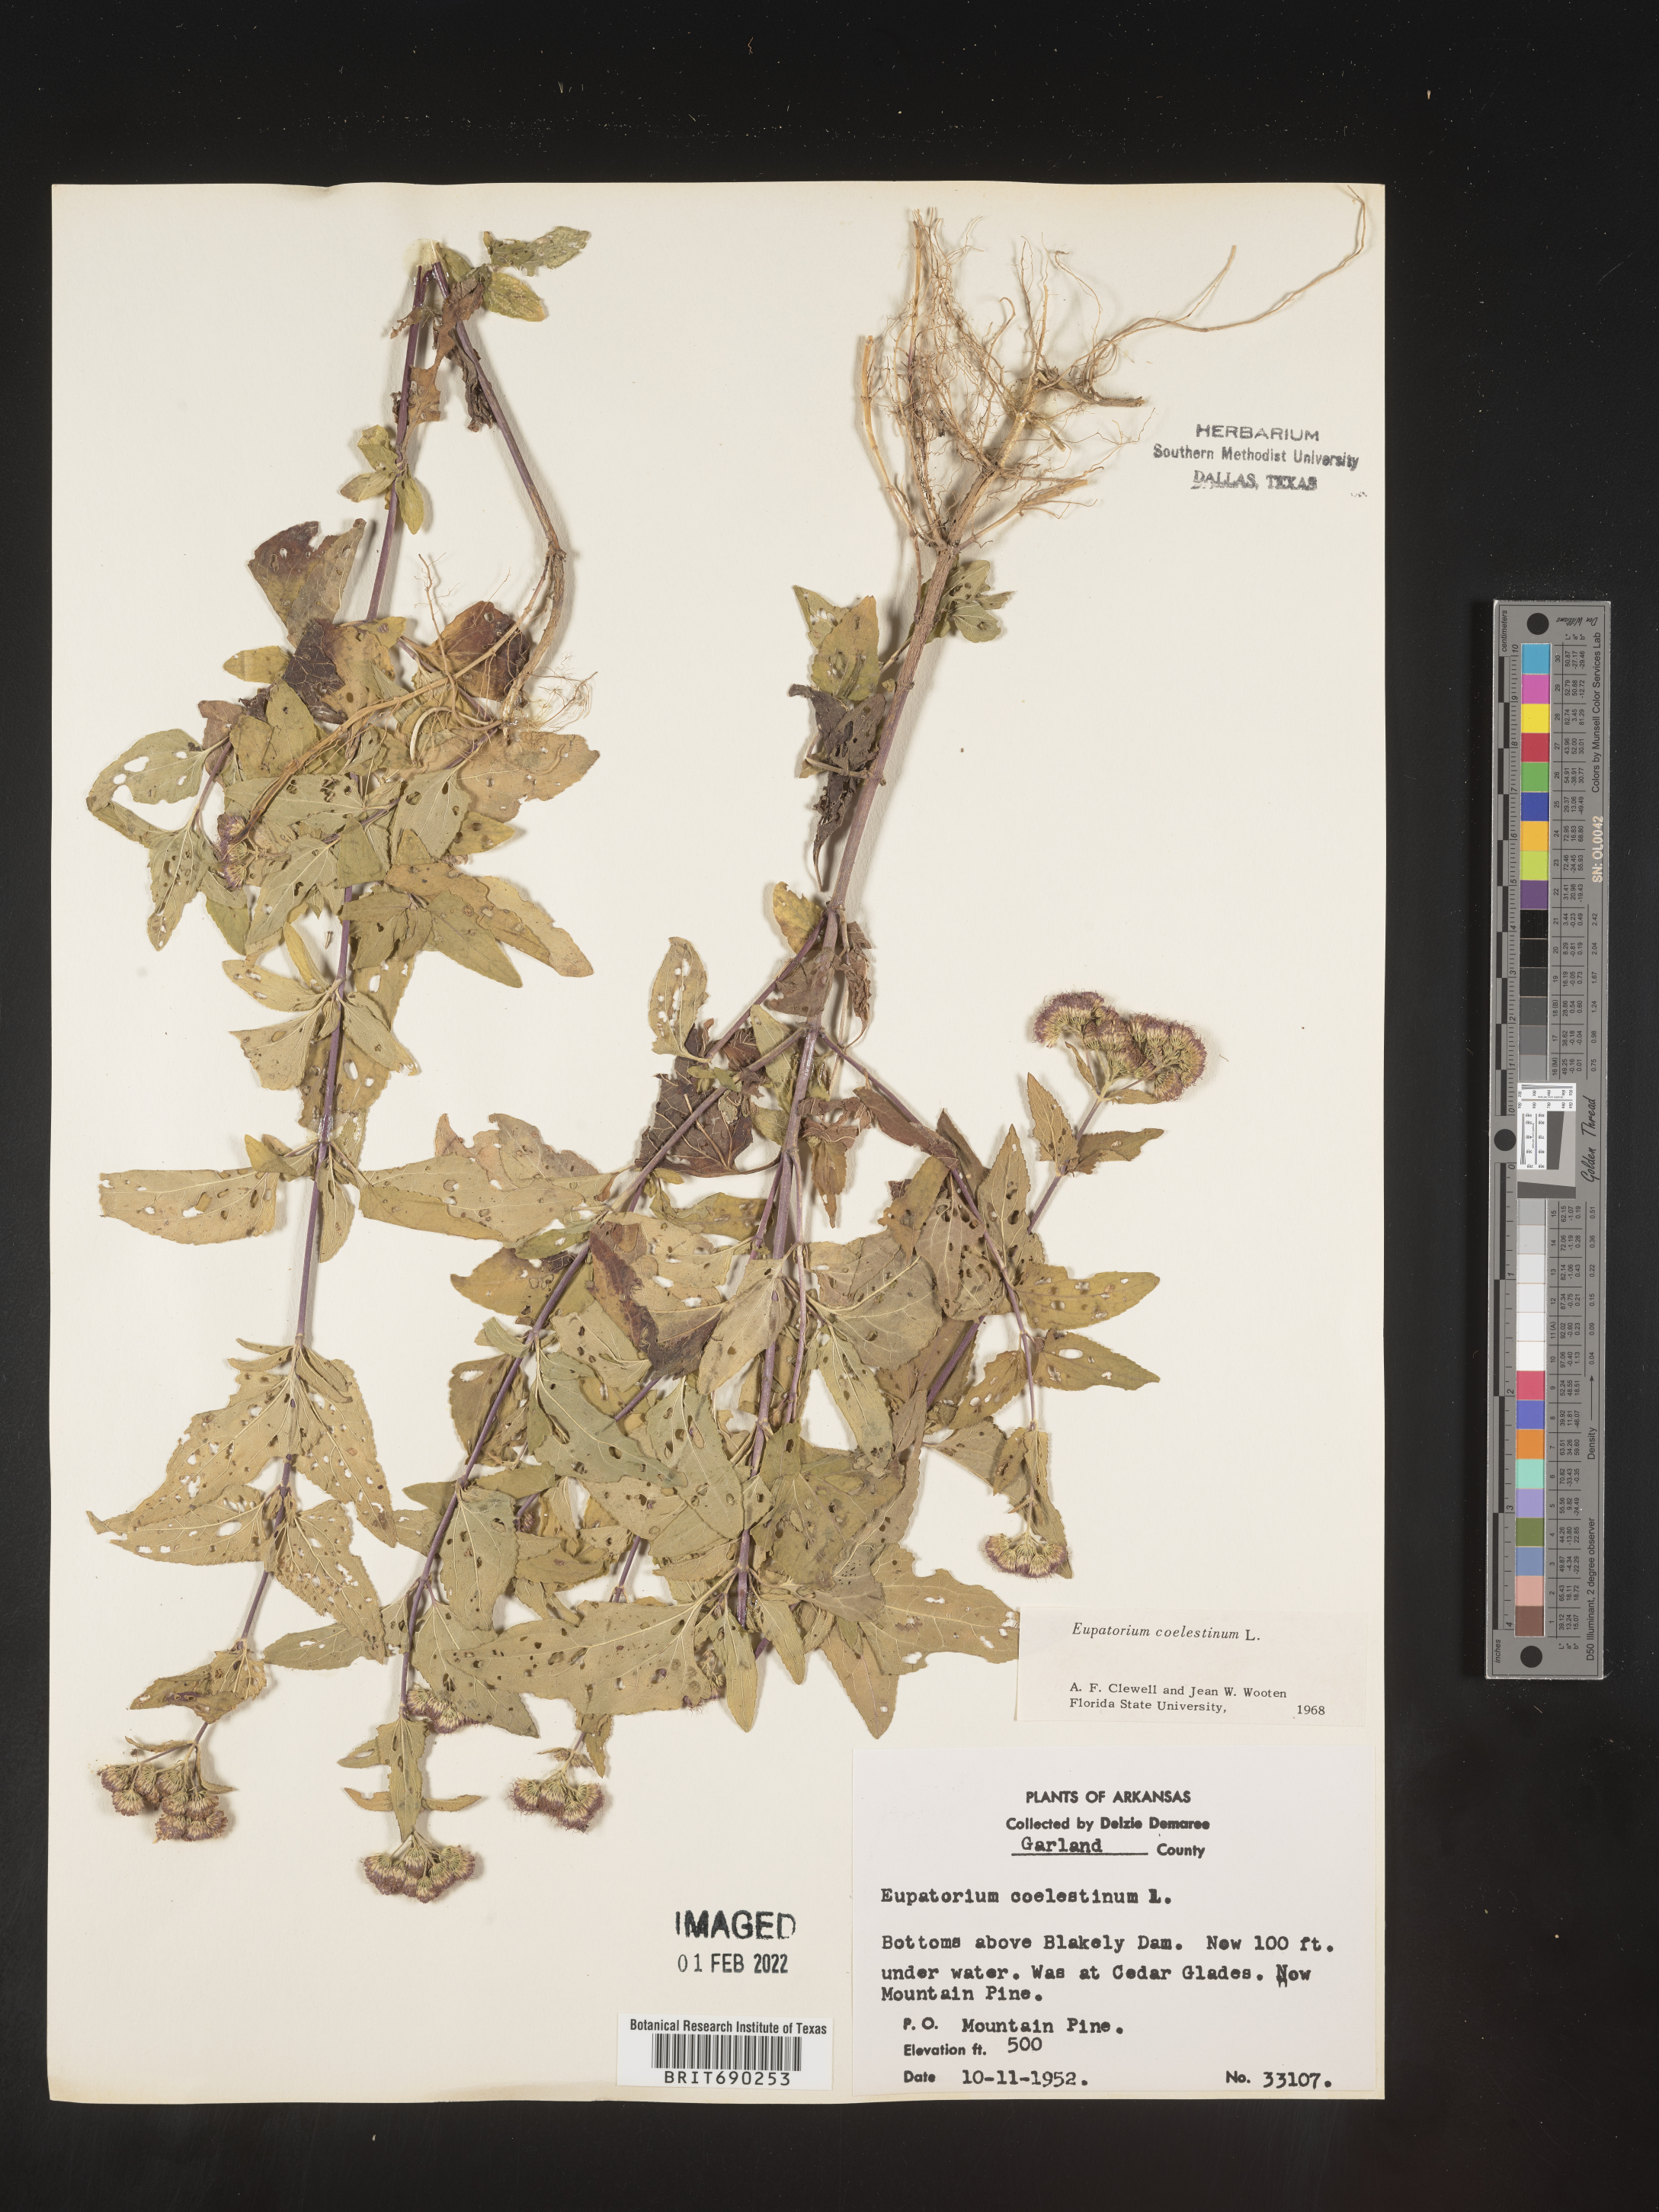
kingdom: Plantae
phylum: Tracheophyta
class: Magnoliopsida
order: Asterales
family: Asteraceae
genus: Conoclinium
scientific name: Conoclinium coelestinum
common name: Blue mistflower
